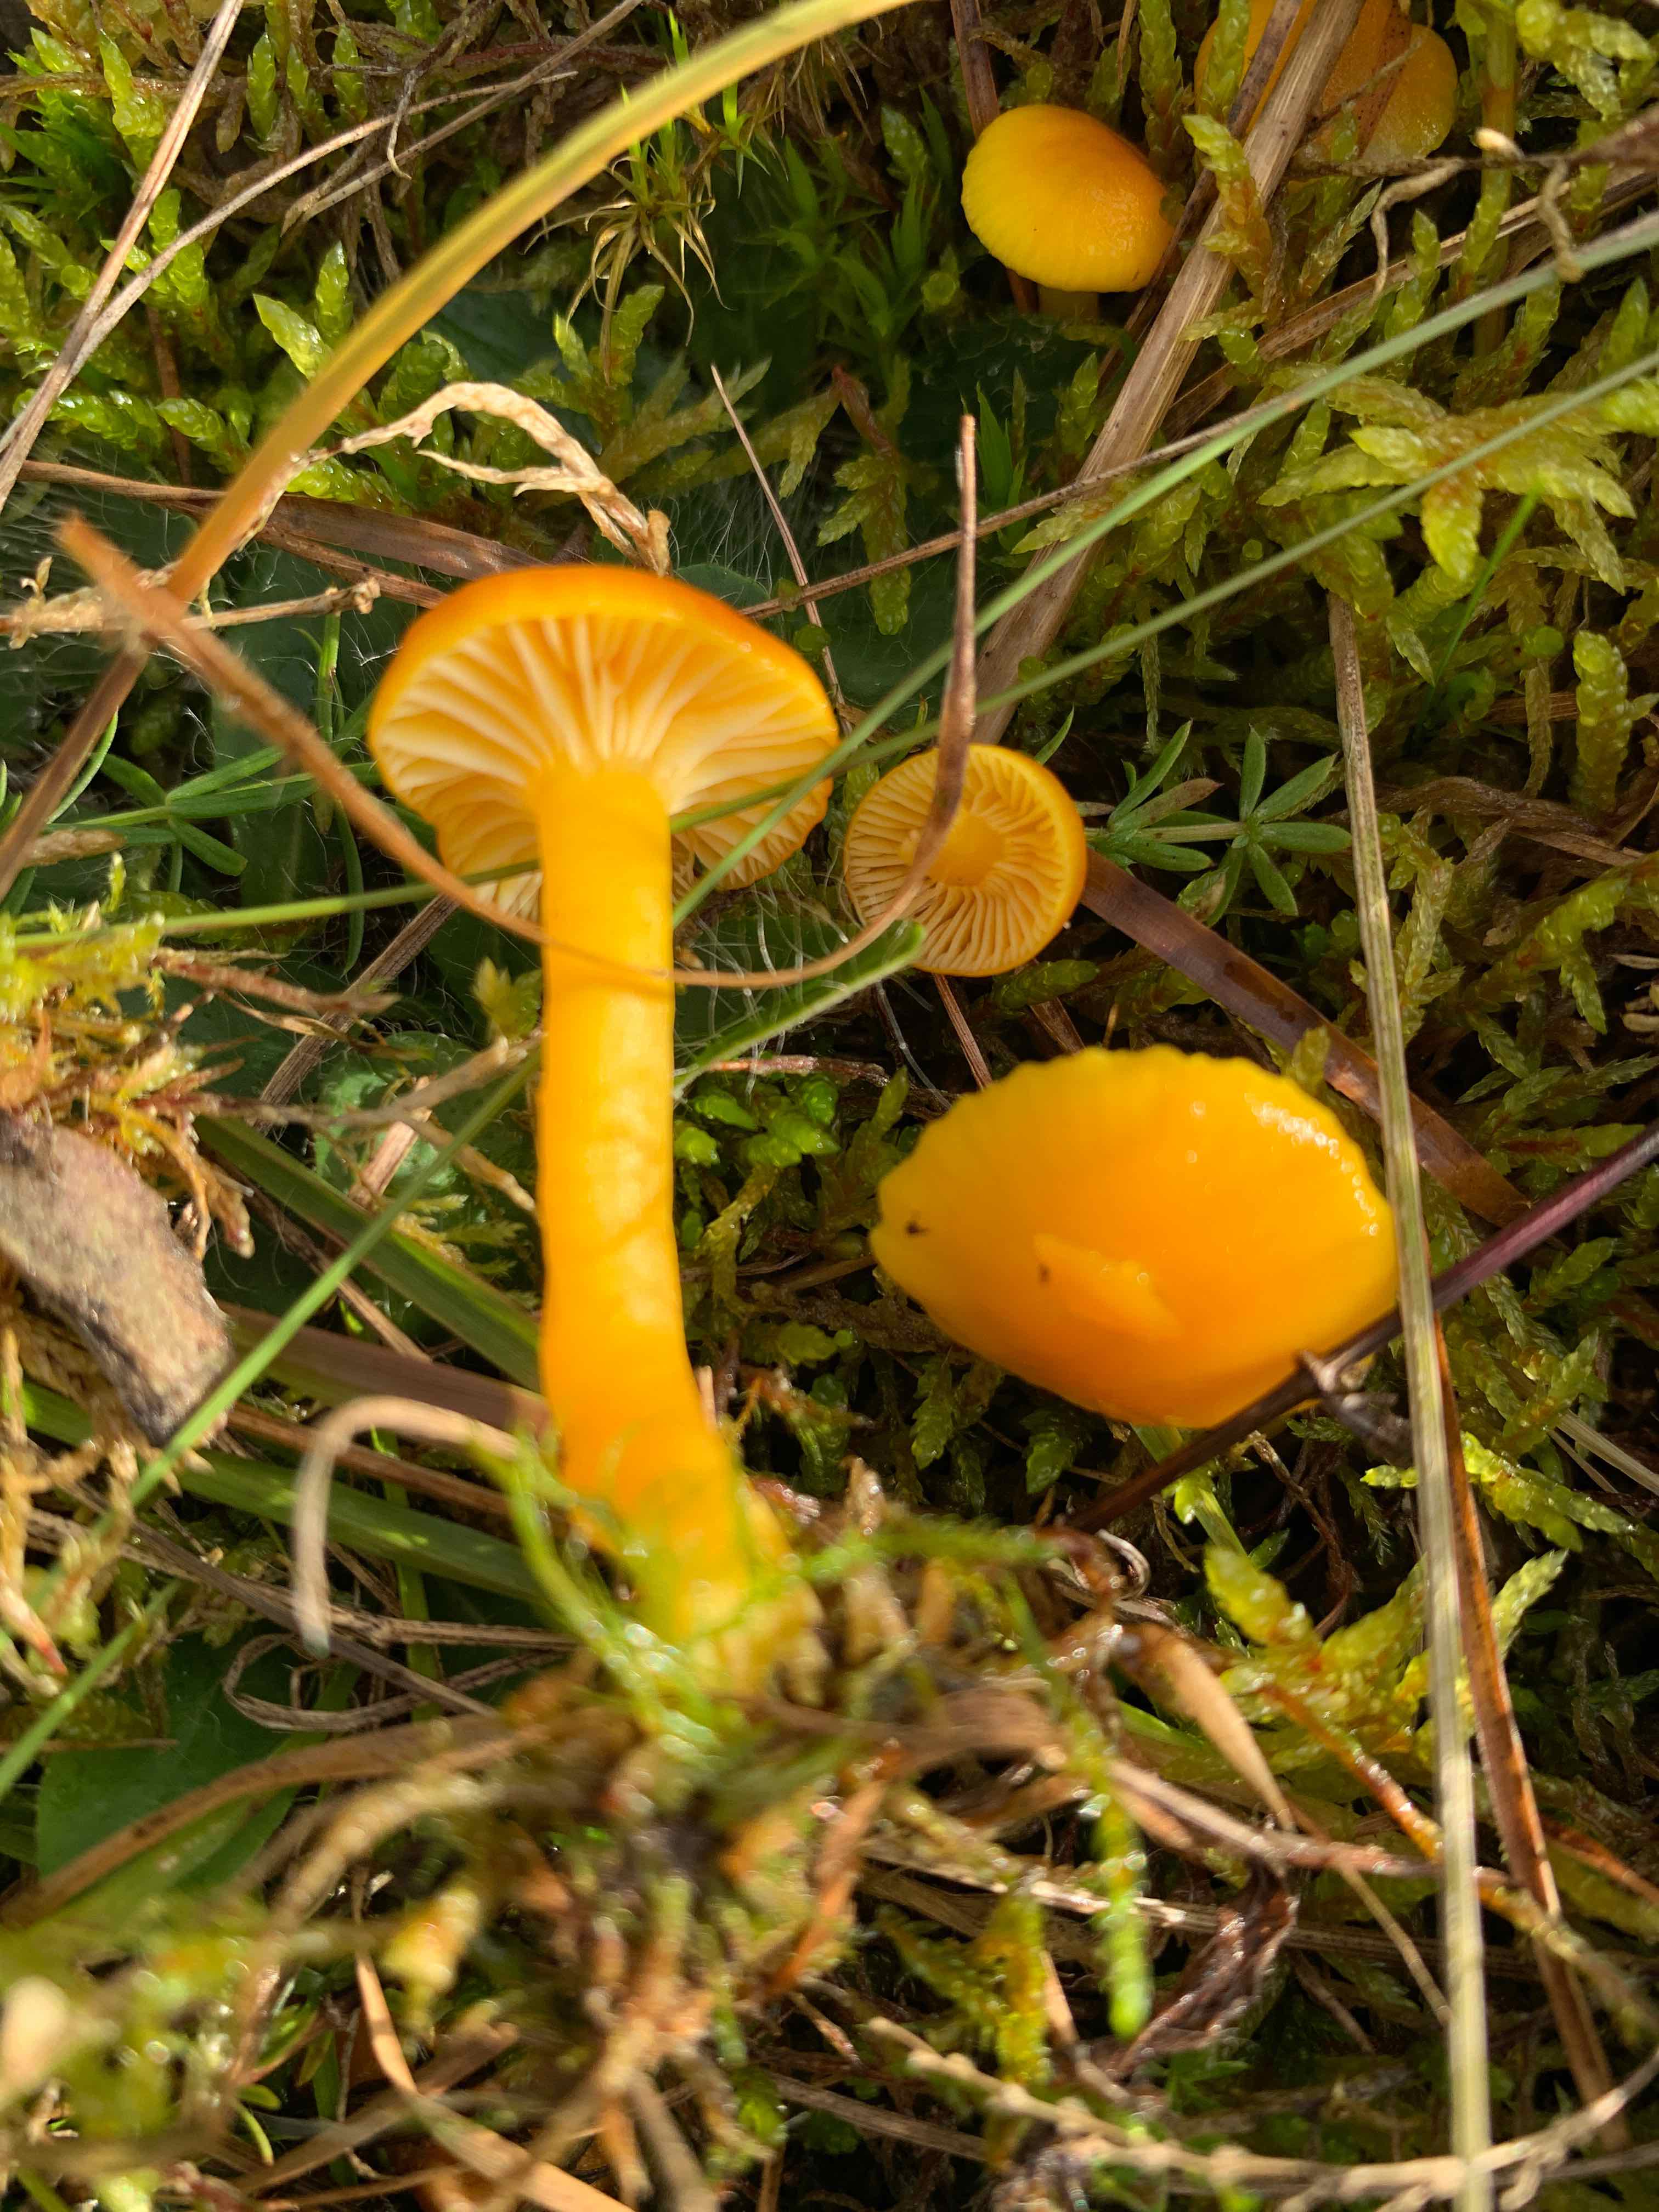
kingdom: Fungi
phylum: Basidiomycota
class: Agaricomycetes
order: Agaricales
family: Hygrophoraceae
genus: Hygrocybe
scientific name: Hygrocybe ceracea
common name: voksgul vokshat
